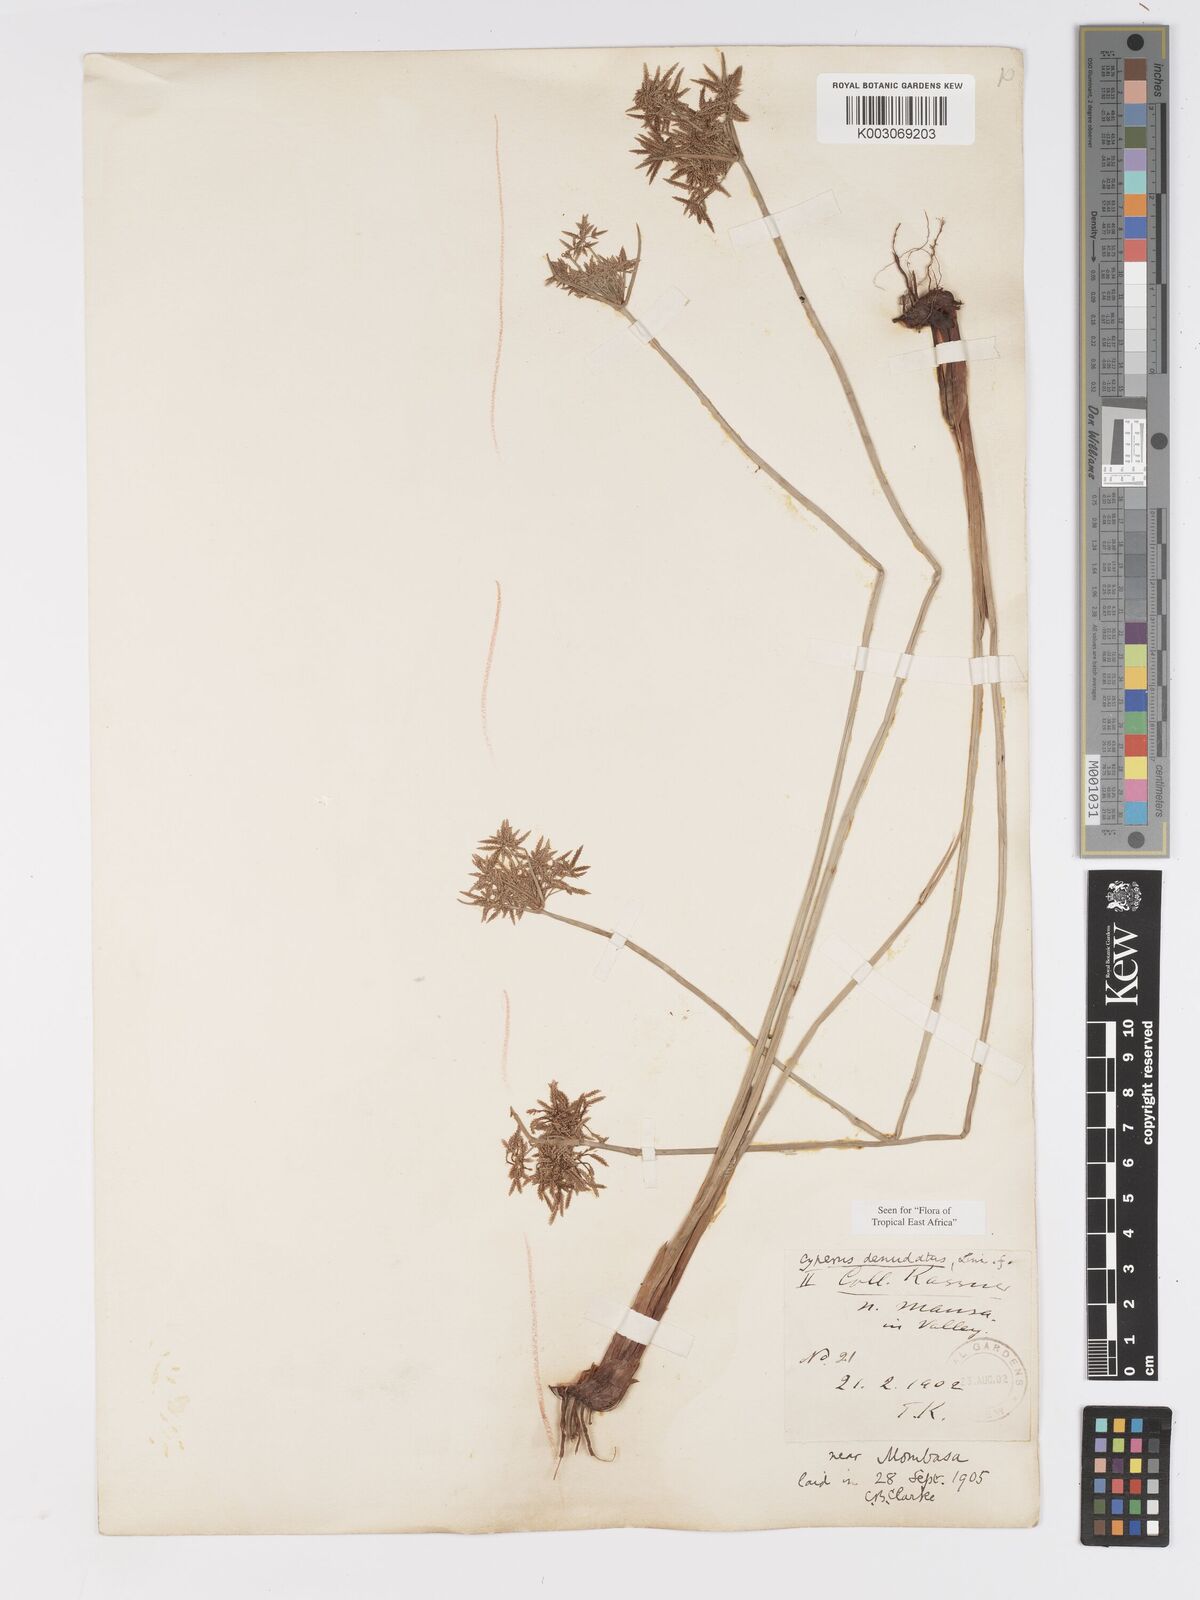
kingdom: Plantae
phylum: Tracheophyta
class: Liliopsida
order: Poales
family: Cyperaceae
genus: Cyperus
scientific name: Cyperus denudatus
